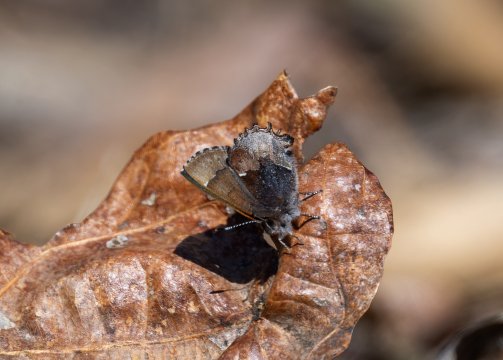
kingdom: Animalia
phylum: Arthropoda
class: Insecta
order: Lepidoptera
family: Lycaenidae
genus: Incisalia
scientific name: Incisalia henrici
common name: Henry's Elfin
